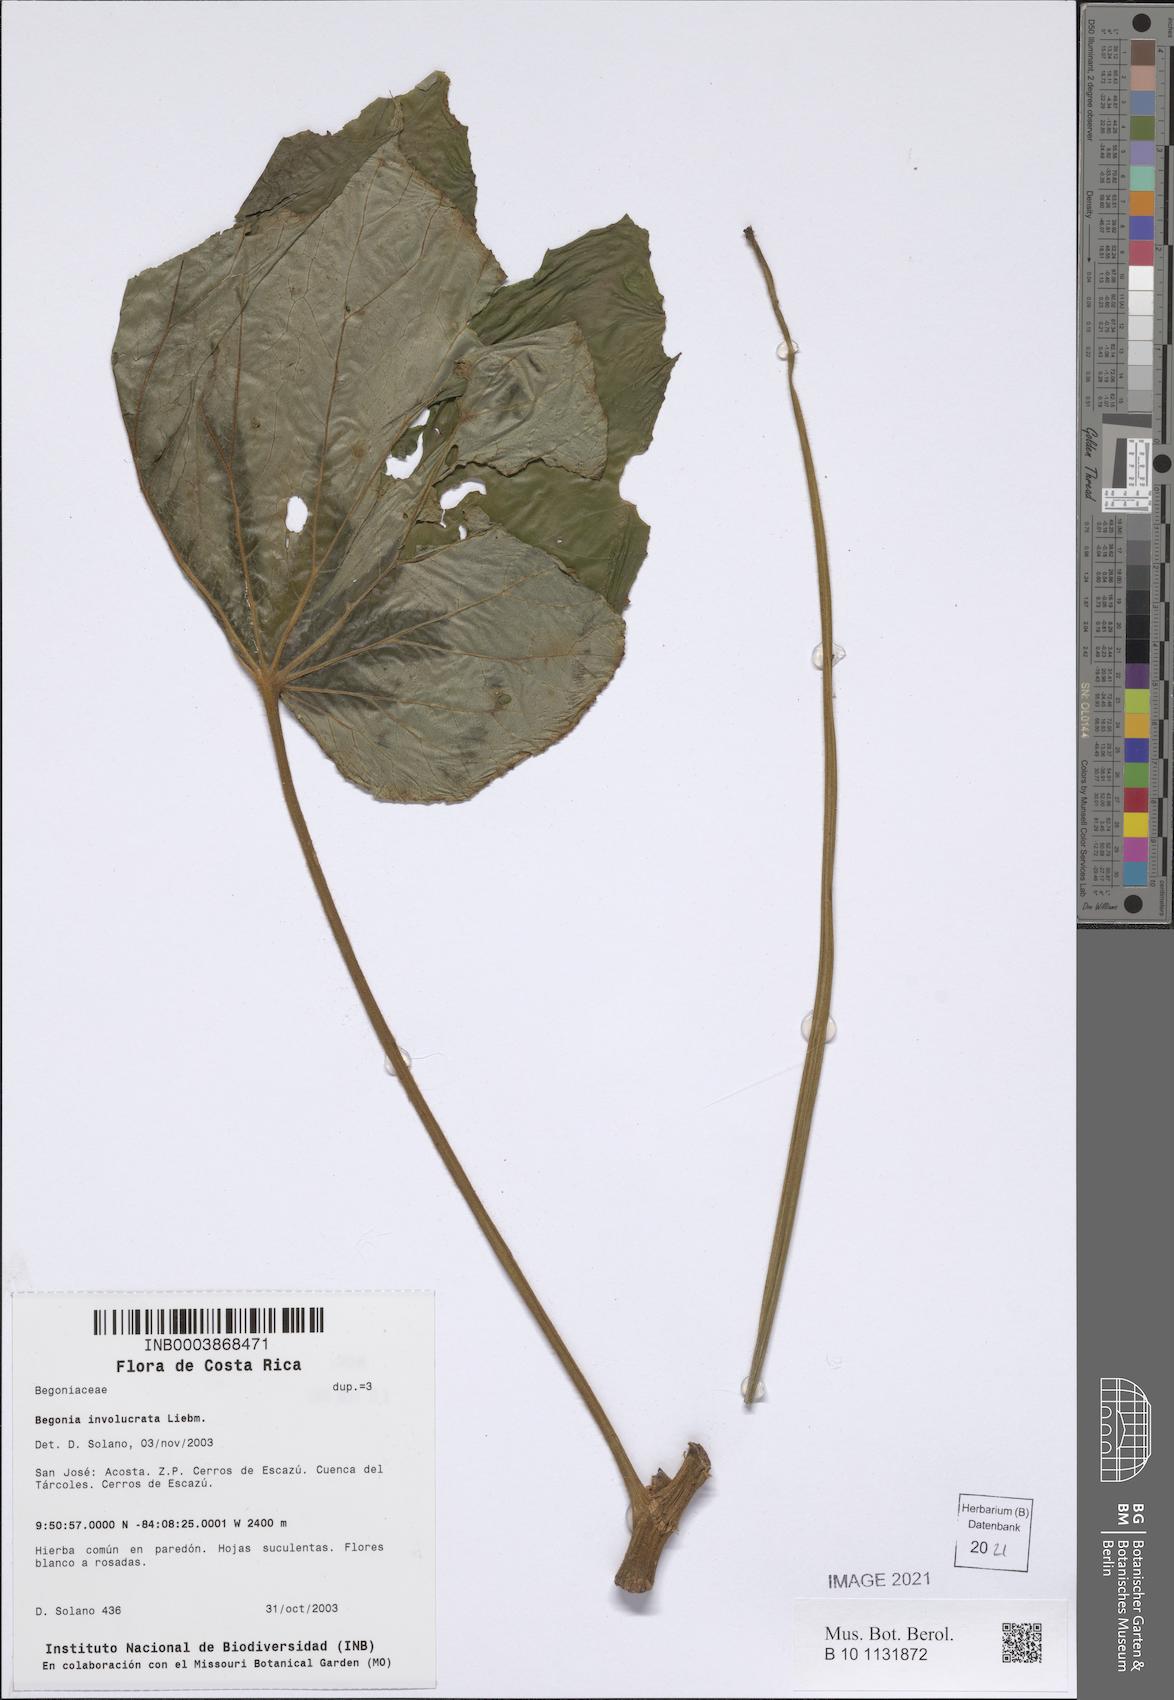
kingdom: Plantae
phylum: Tracheophyta
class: Magnoliopsida
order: Cucurbitales
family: Begoniaceae
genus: Begonia
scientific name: Begonia involucrata
